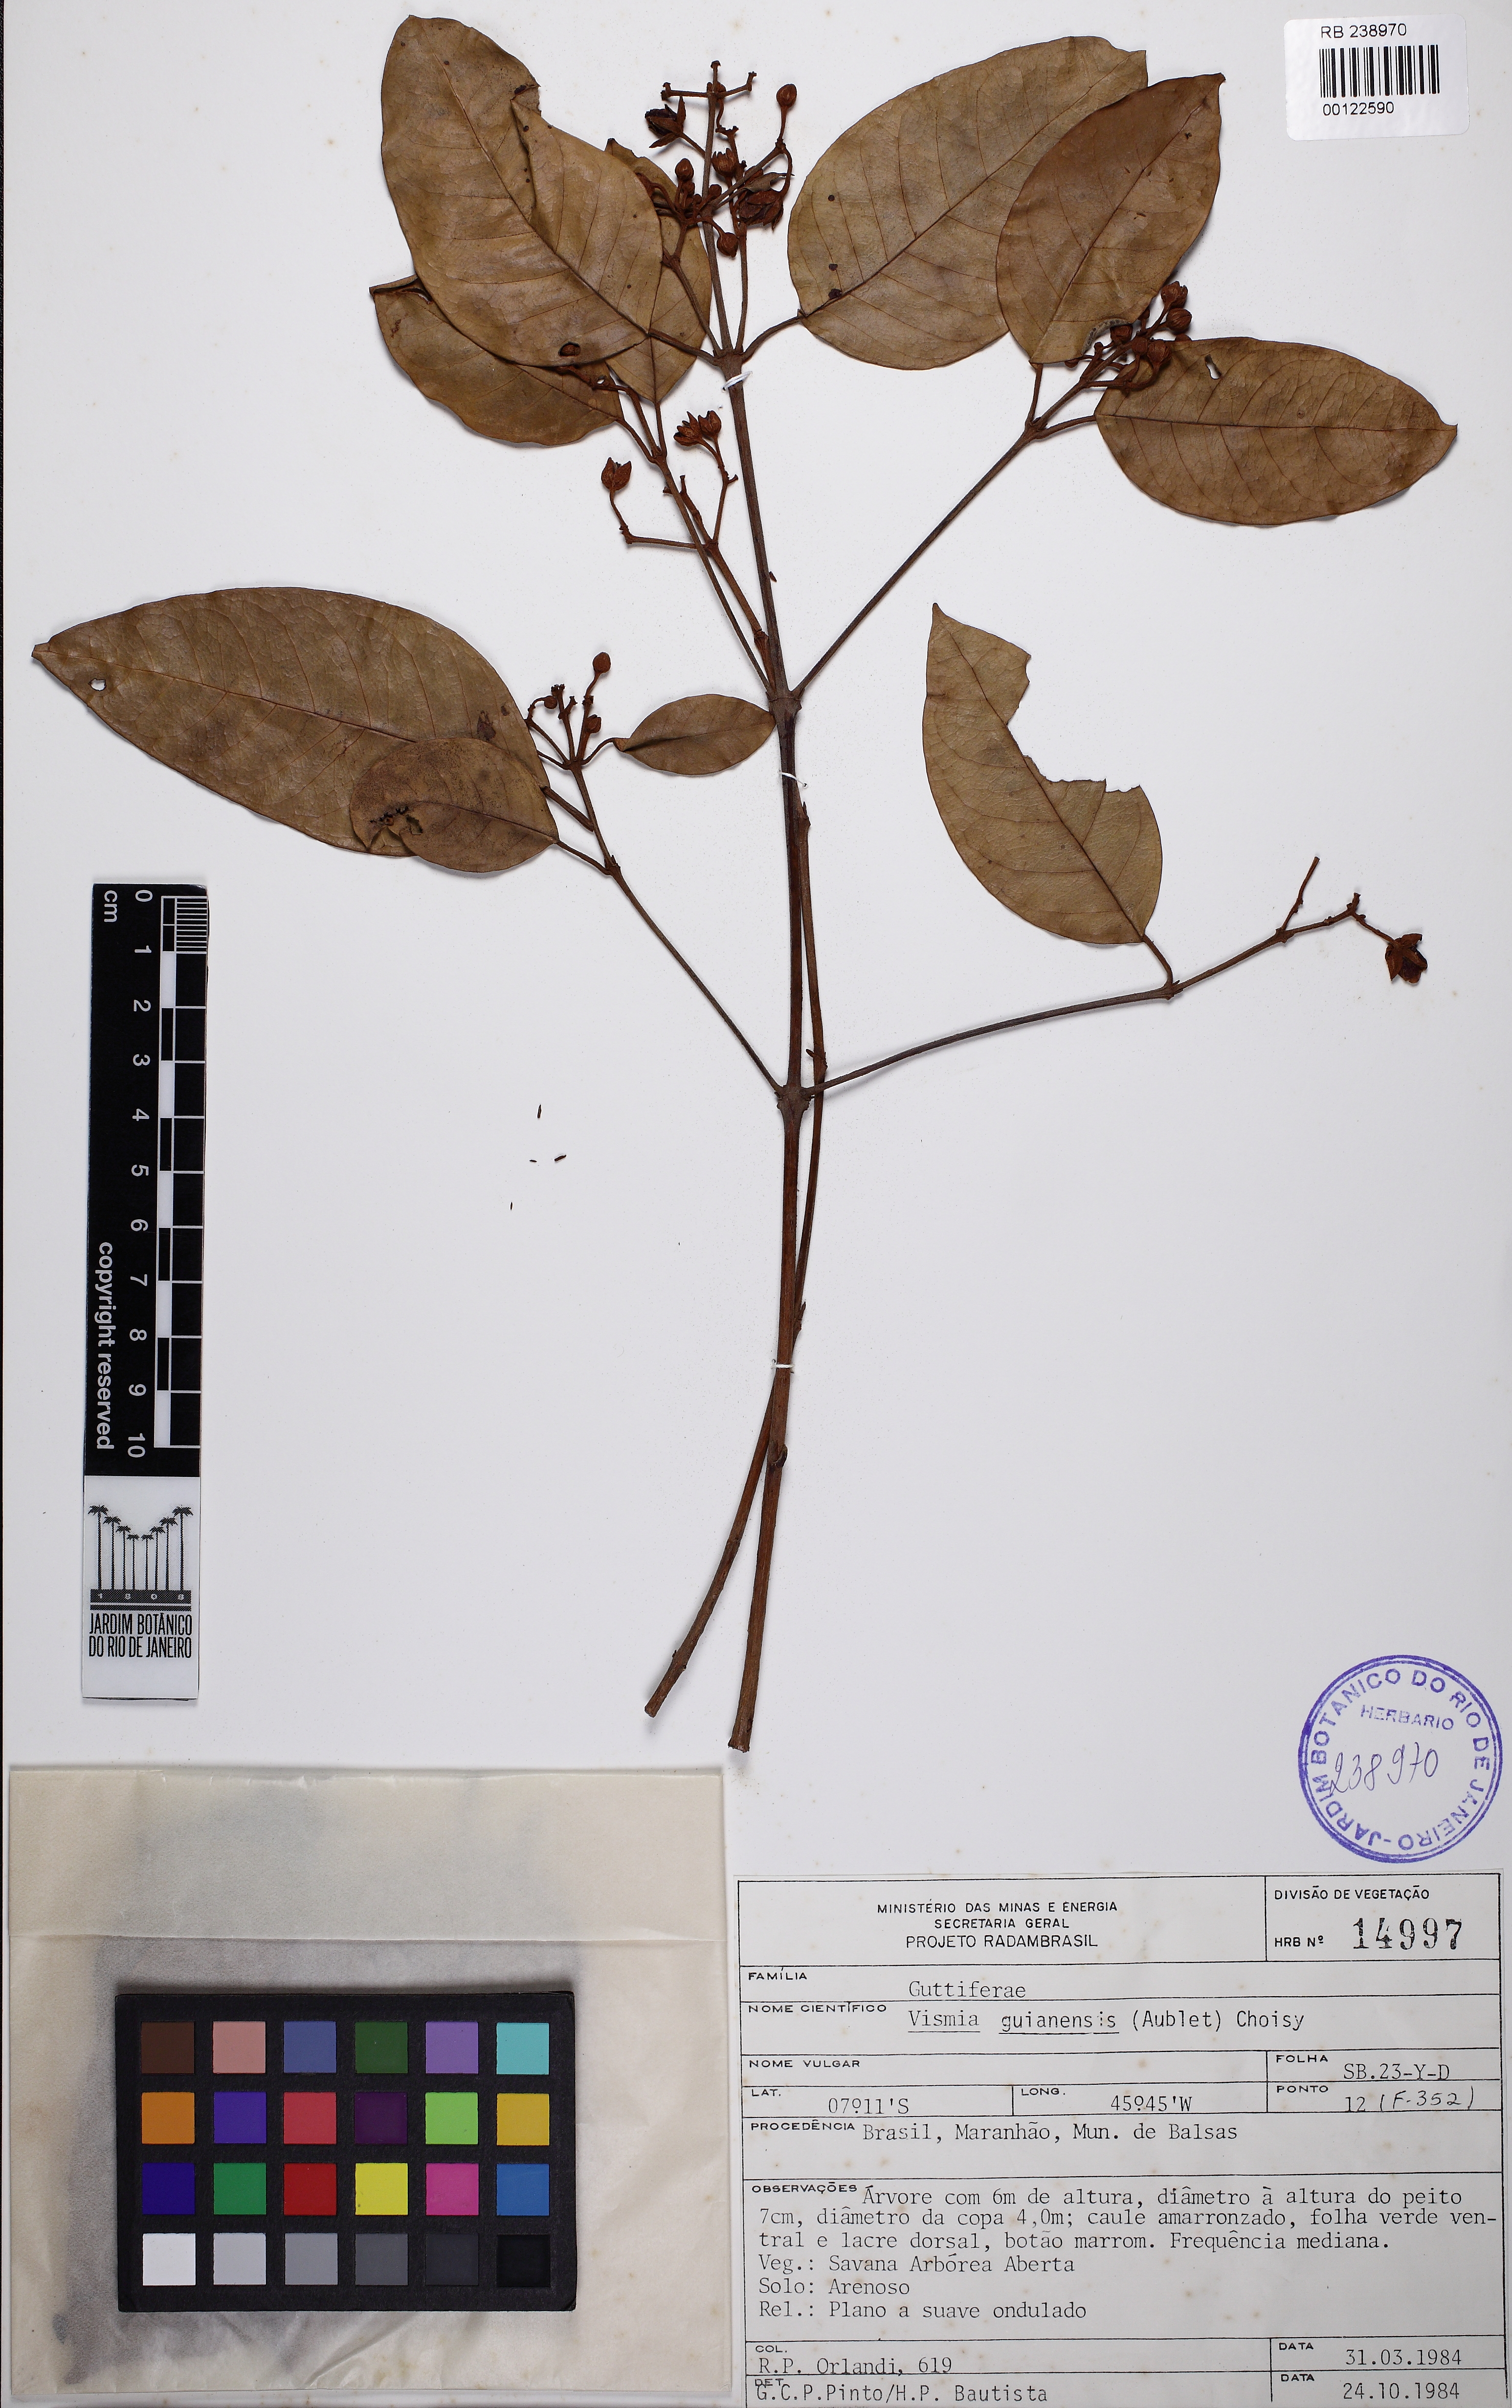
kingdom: Plantae
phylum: Tracheophyta
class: Magnoliopsida
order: Malpighiales
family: Hypericaceae
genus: Vismia
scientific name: Vismia guianensis
